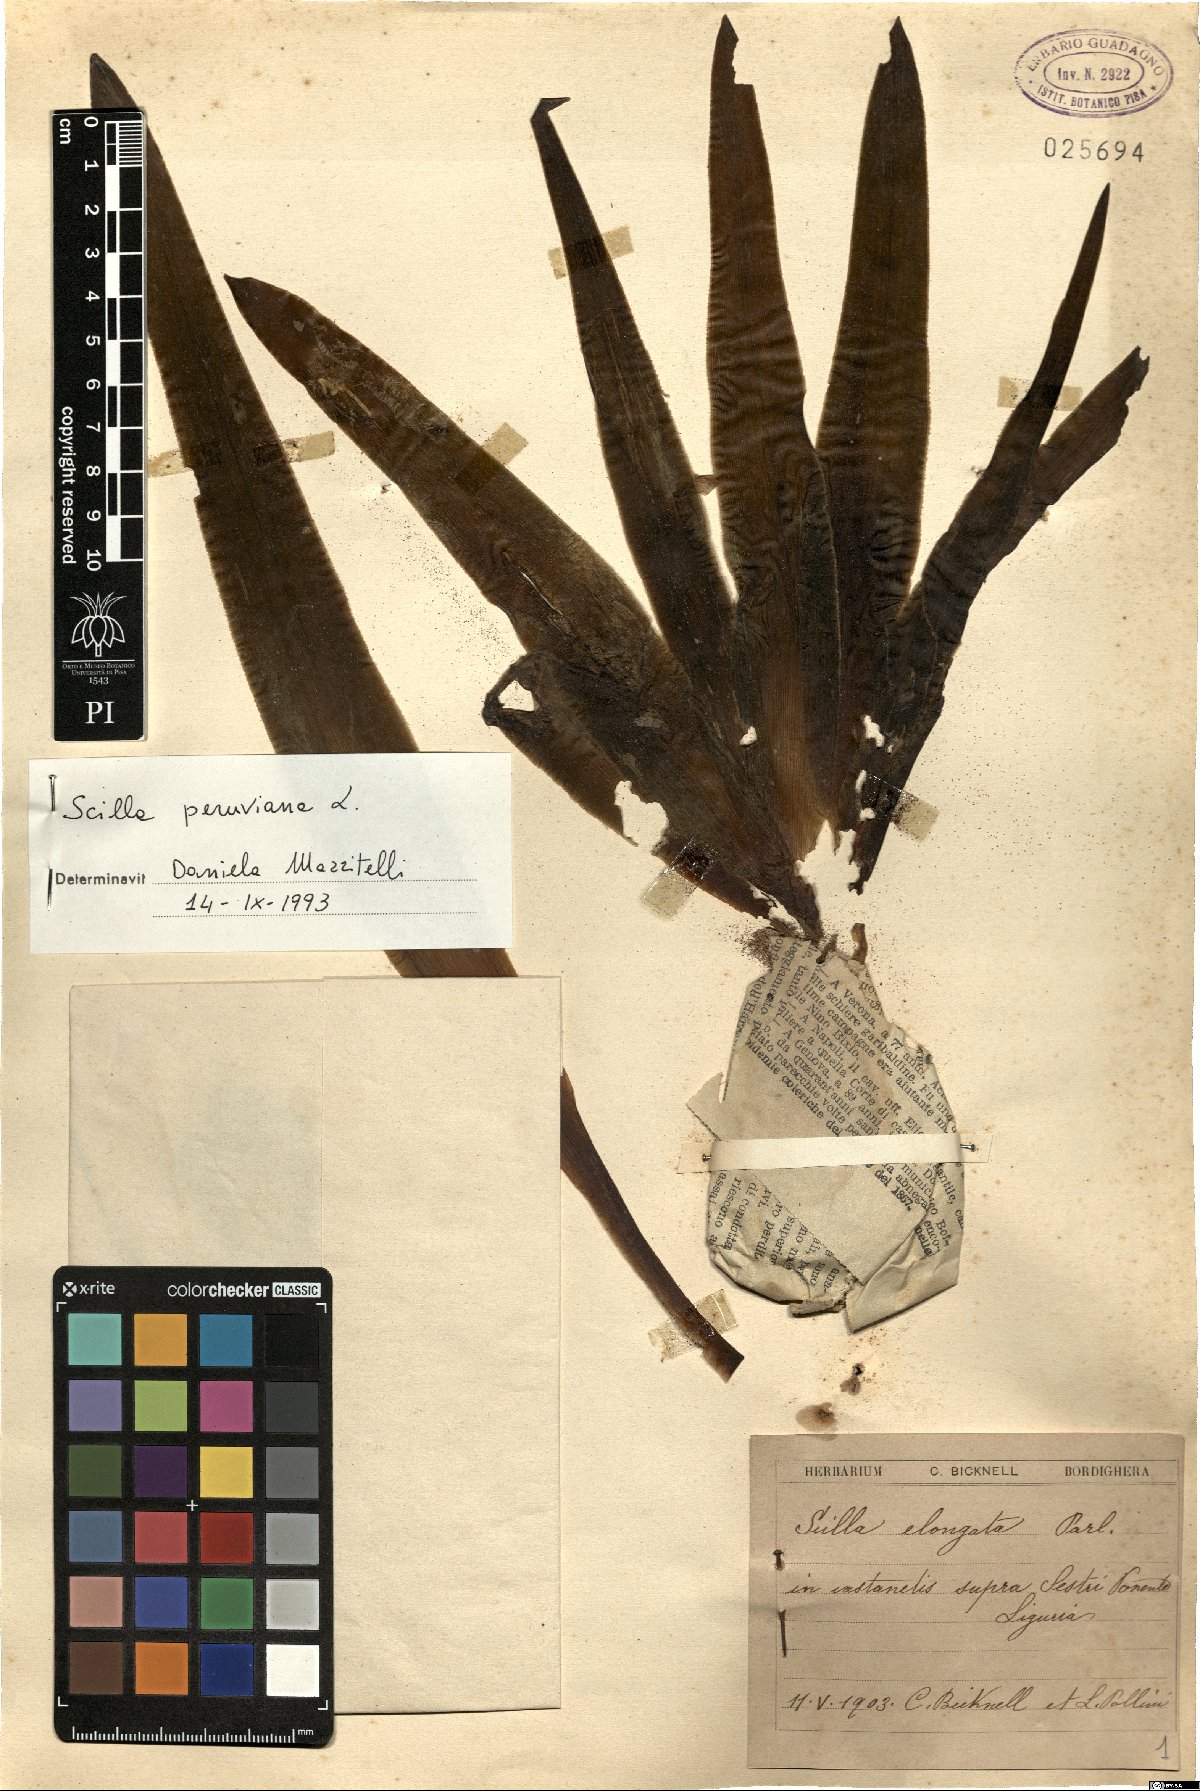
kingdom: Plantae
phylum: Tracheophyta
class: Liliopsida
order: Asparagales
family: Asparagaceae
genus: Scilla
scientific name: Scilla peruviana
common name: Portuguese squill
